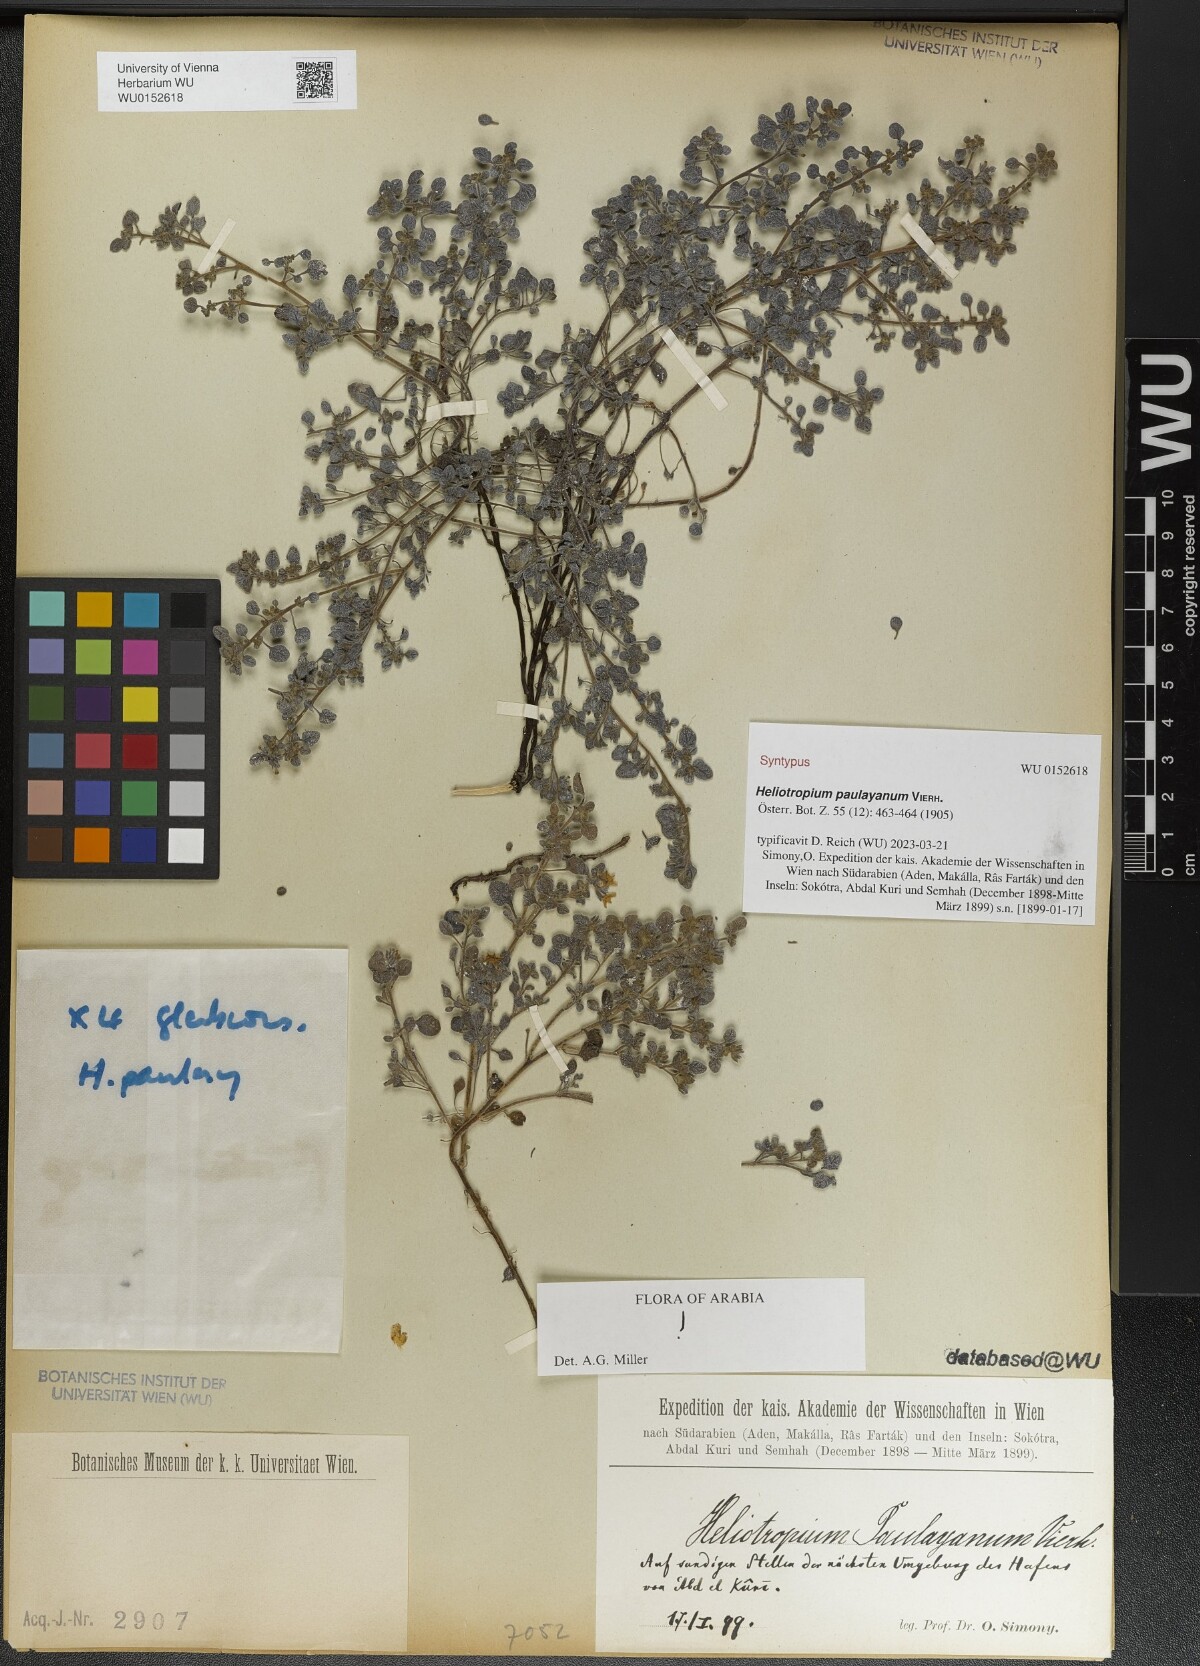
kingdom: Plantae
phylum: Tracheophyta
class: Magnoliopsida
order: Boraginales
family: Heliotropiaceae
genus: Heliotropium
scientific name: Heliotropium paulayanum
